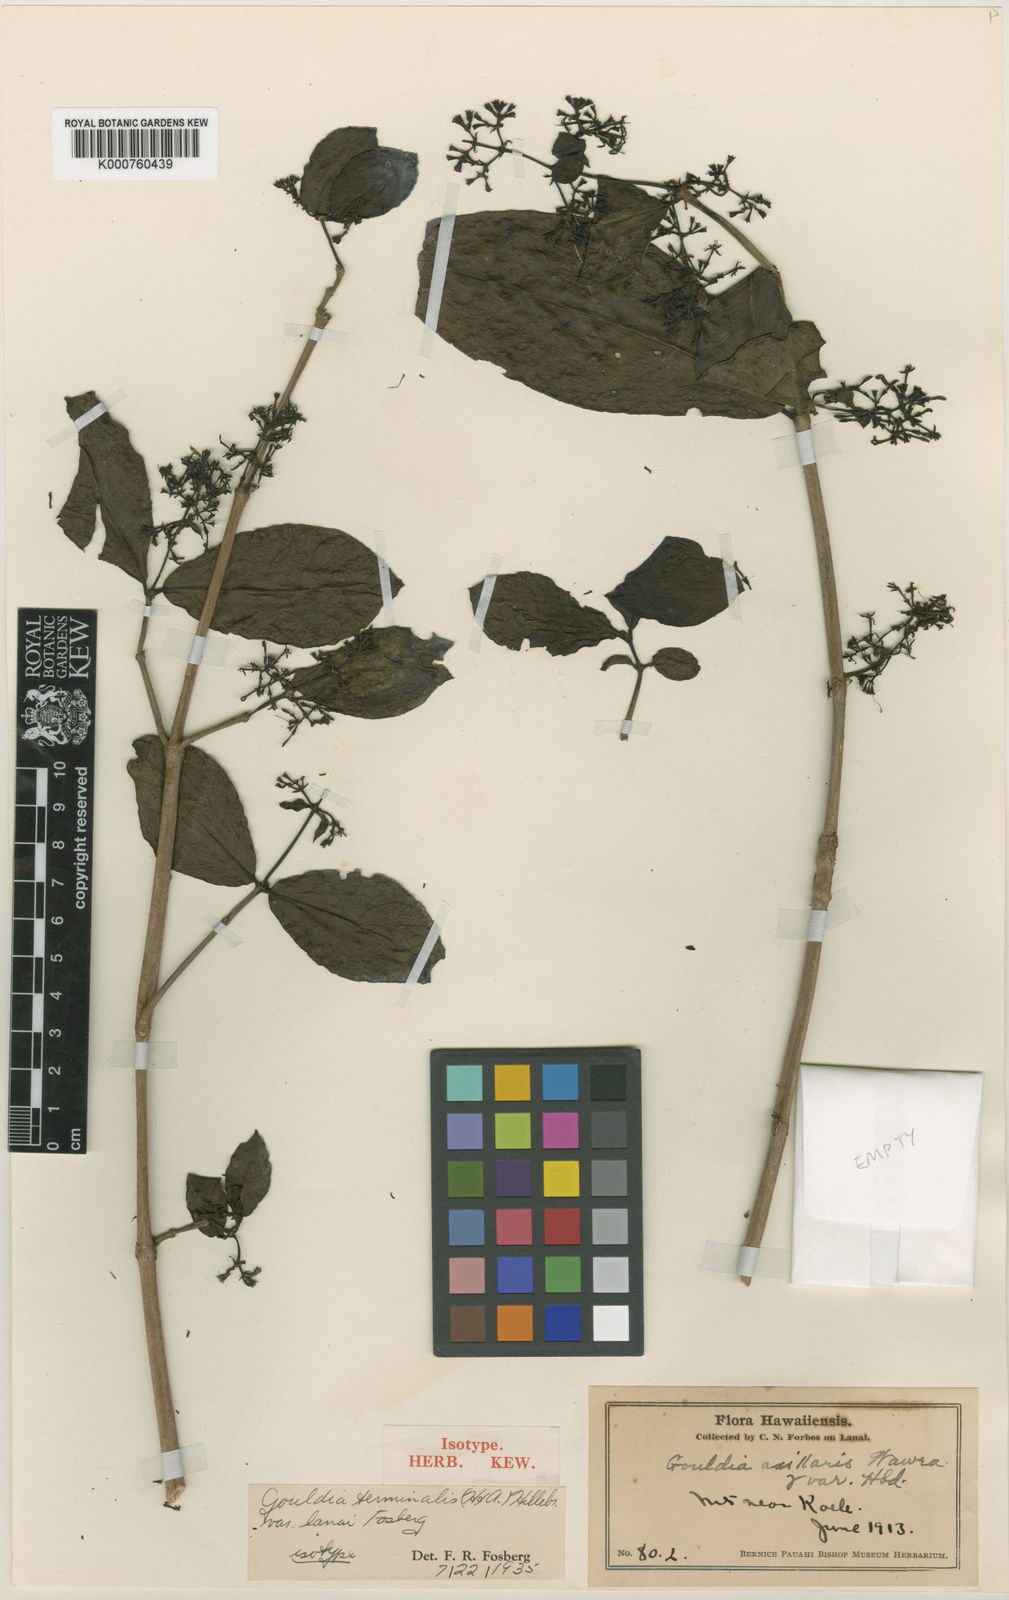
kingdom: Plantae
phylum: Tracheophyta
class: Magnoliopsida
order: Gentianales
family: Rubiaceae
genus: Kadua
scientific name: Kadua affinis
